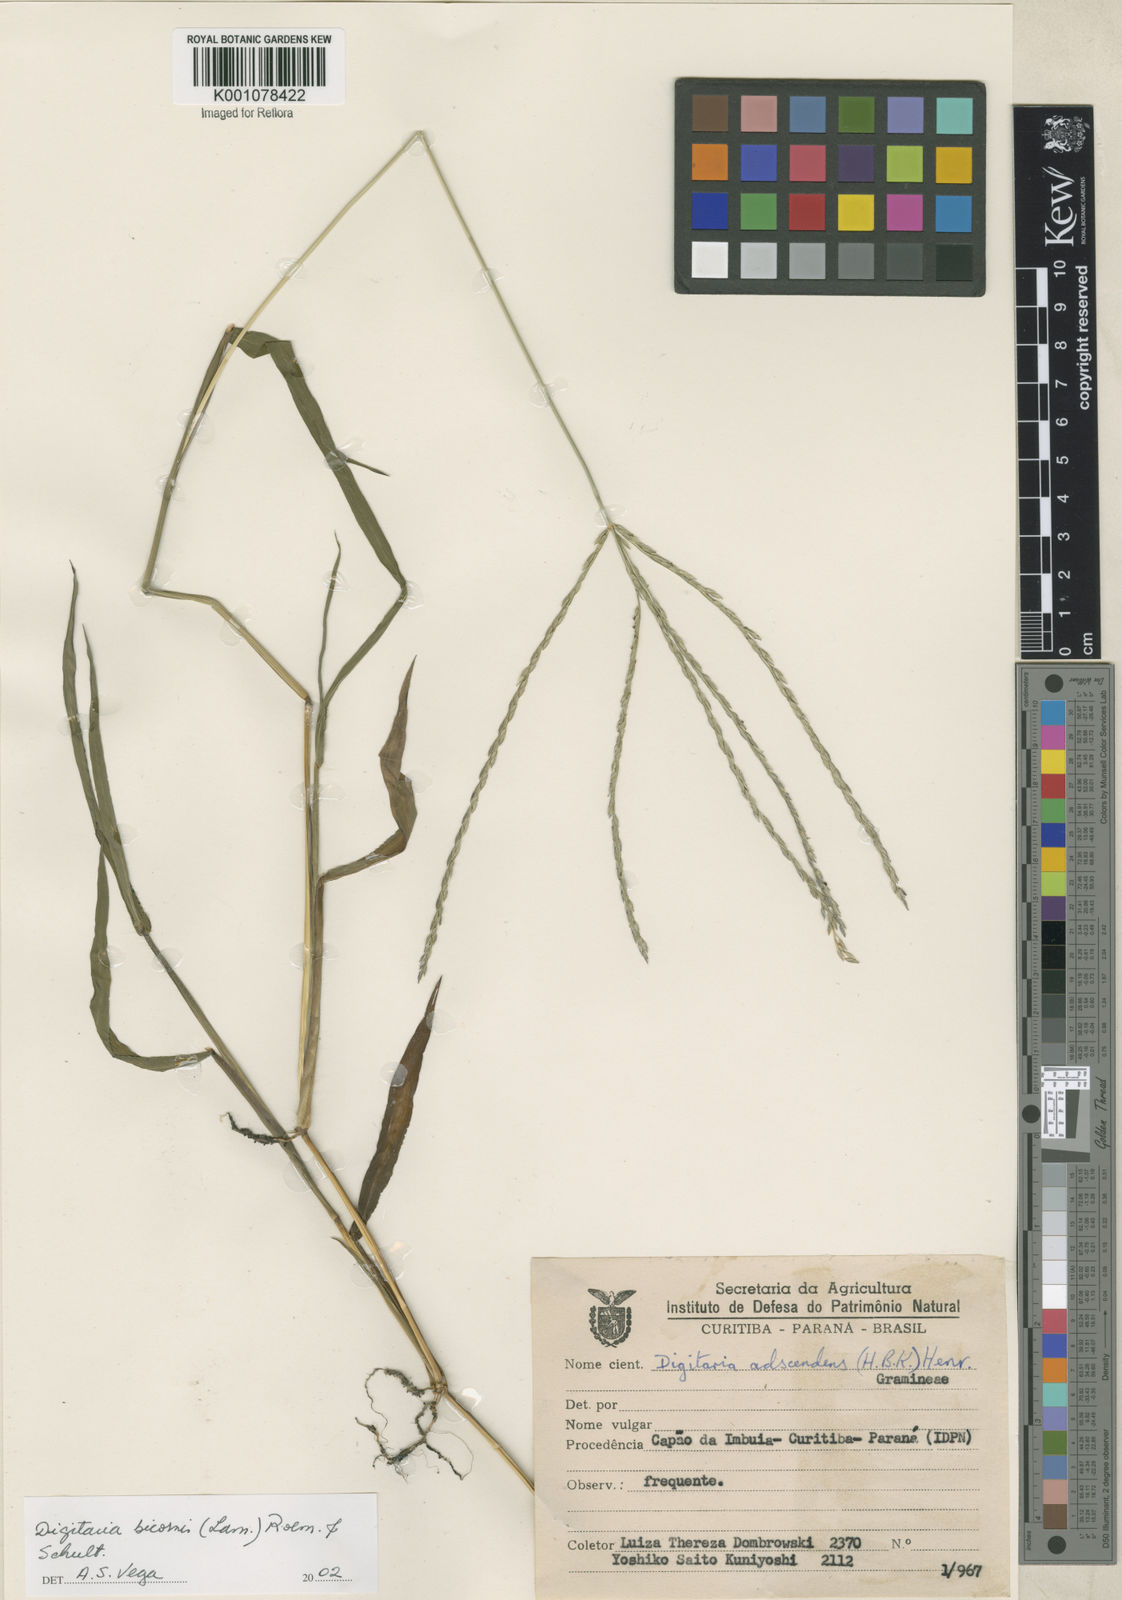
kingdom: Plantae
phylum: Tracheophyta
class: Liliopsida
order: Poales
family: Poaceae
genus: Digitaria
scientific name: Digitaria bicornis
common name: Asian crabgrass
